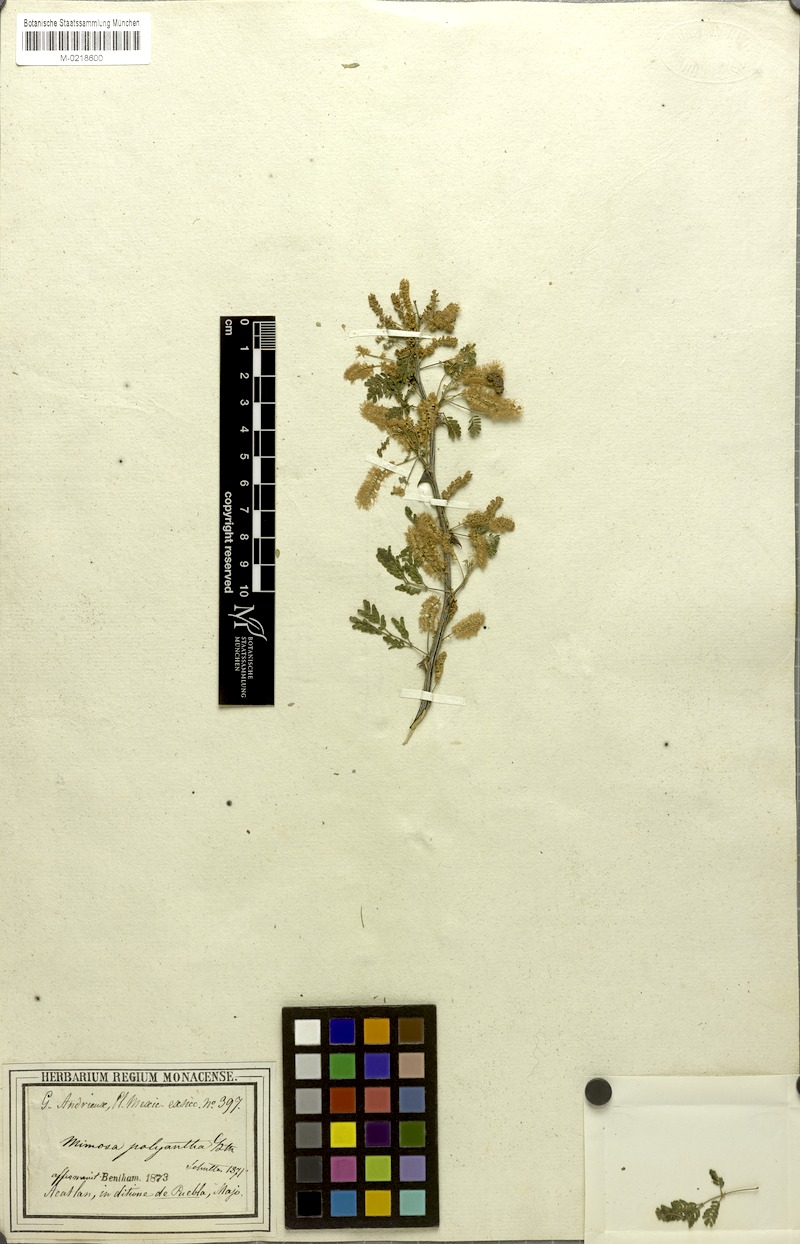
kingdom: Plantae
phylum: Tracheophyta
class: Magnoliopsida
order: Fabales
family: Fabaceae
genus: Mimosa
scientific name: Mimosa polyantha
